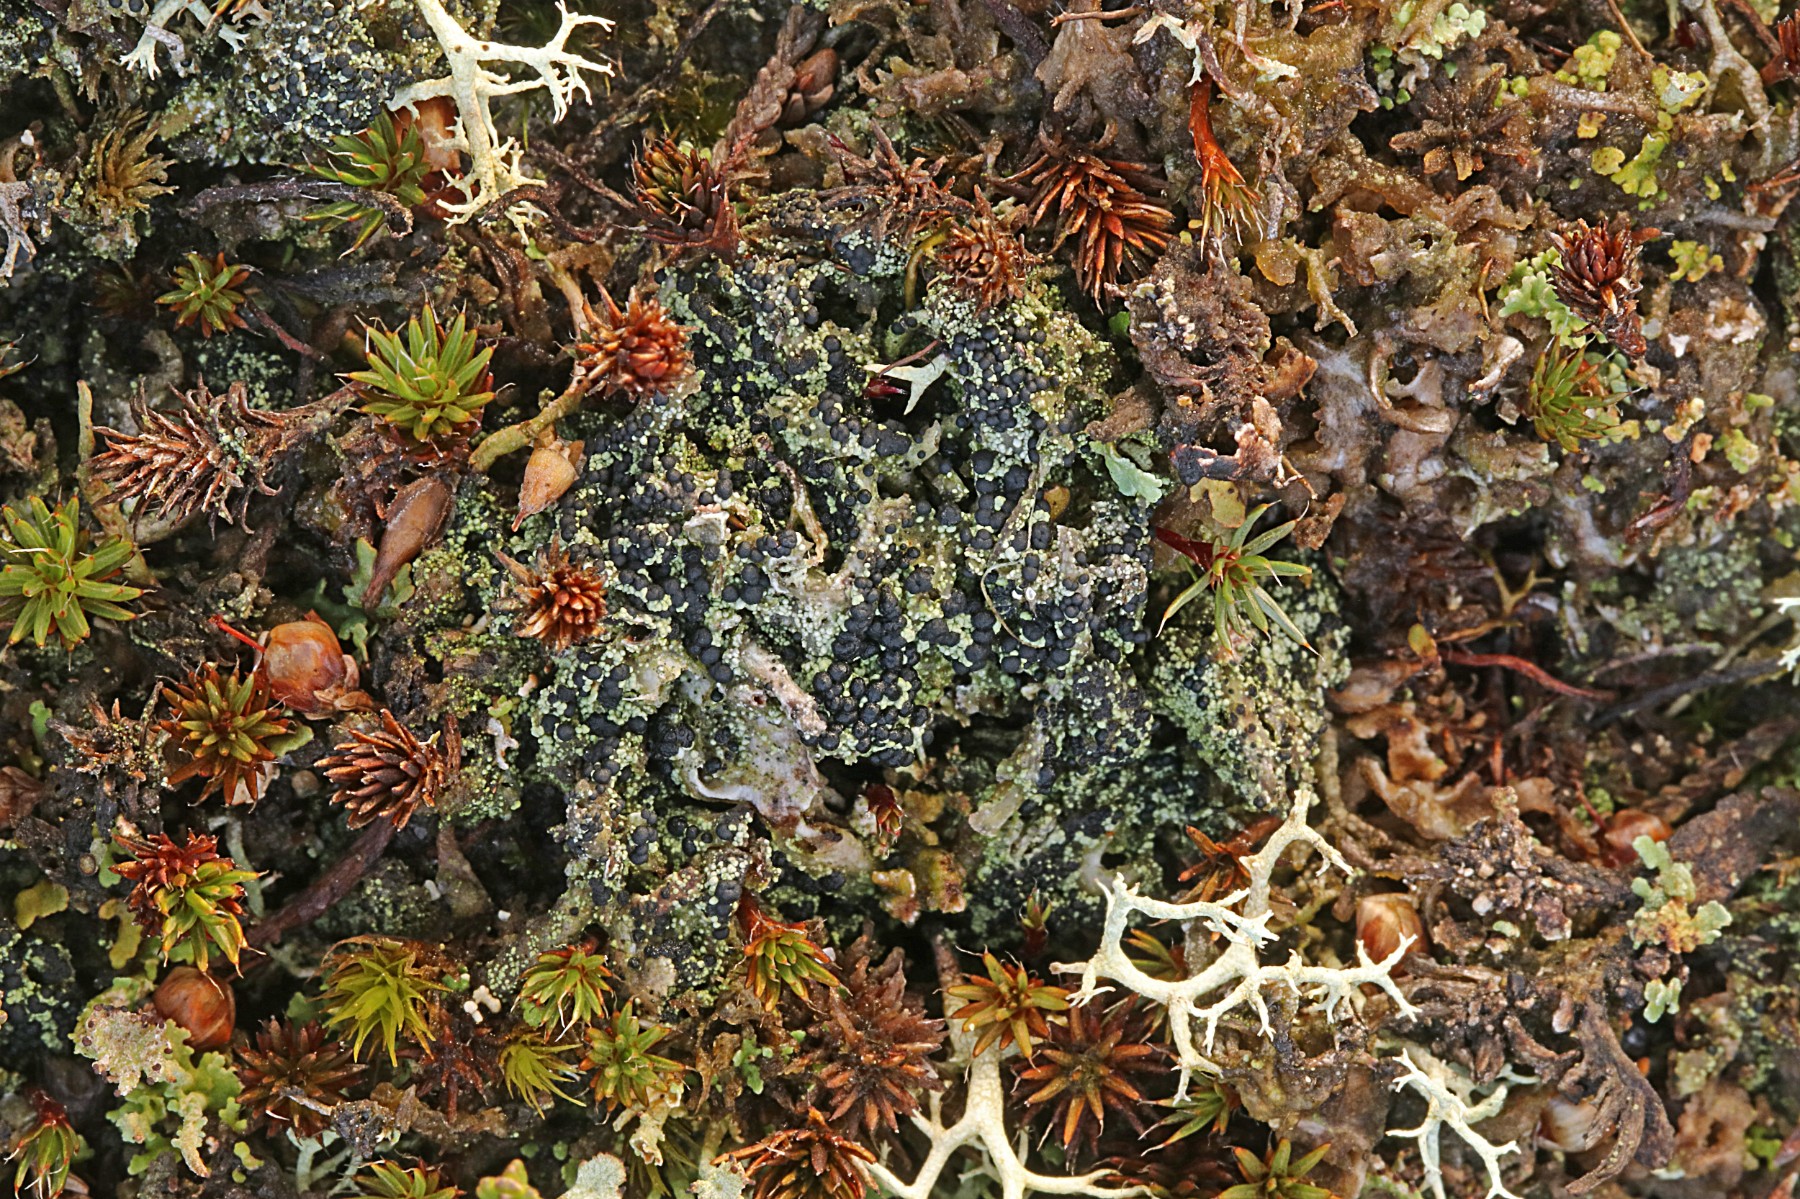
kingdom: Fungi
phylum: Ascomycota
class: Lecanoromycetes
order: Lecanorales
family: Byssolomataceae
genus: Micarea
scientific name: Micarea lignaria
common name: tørve-knaplav
